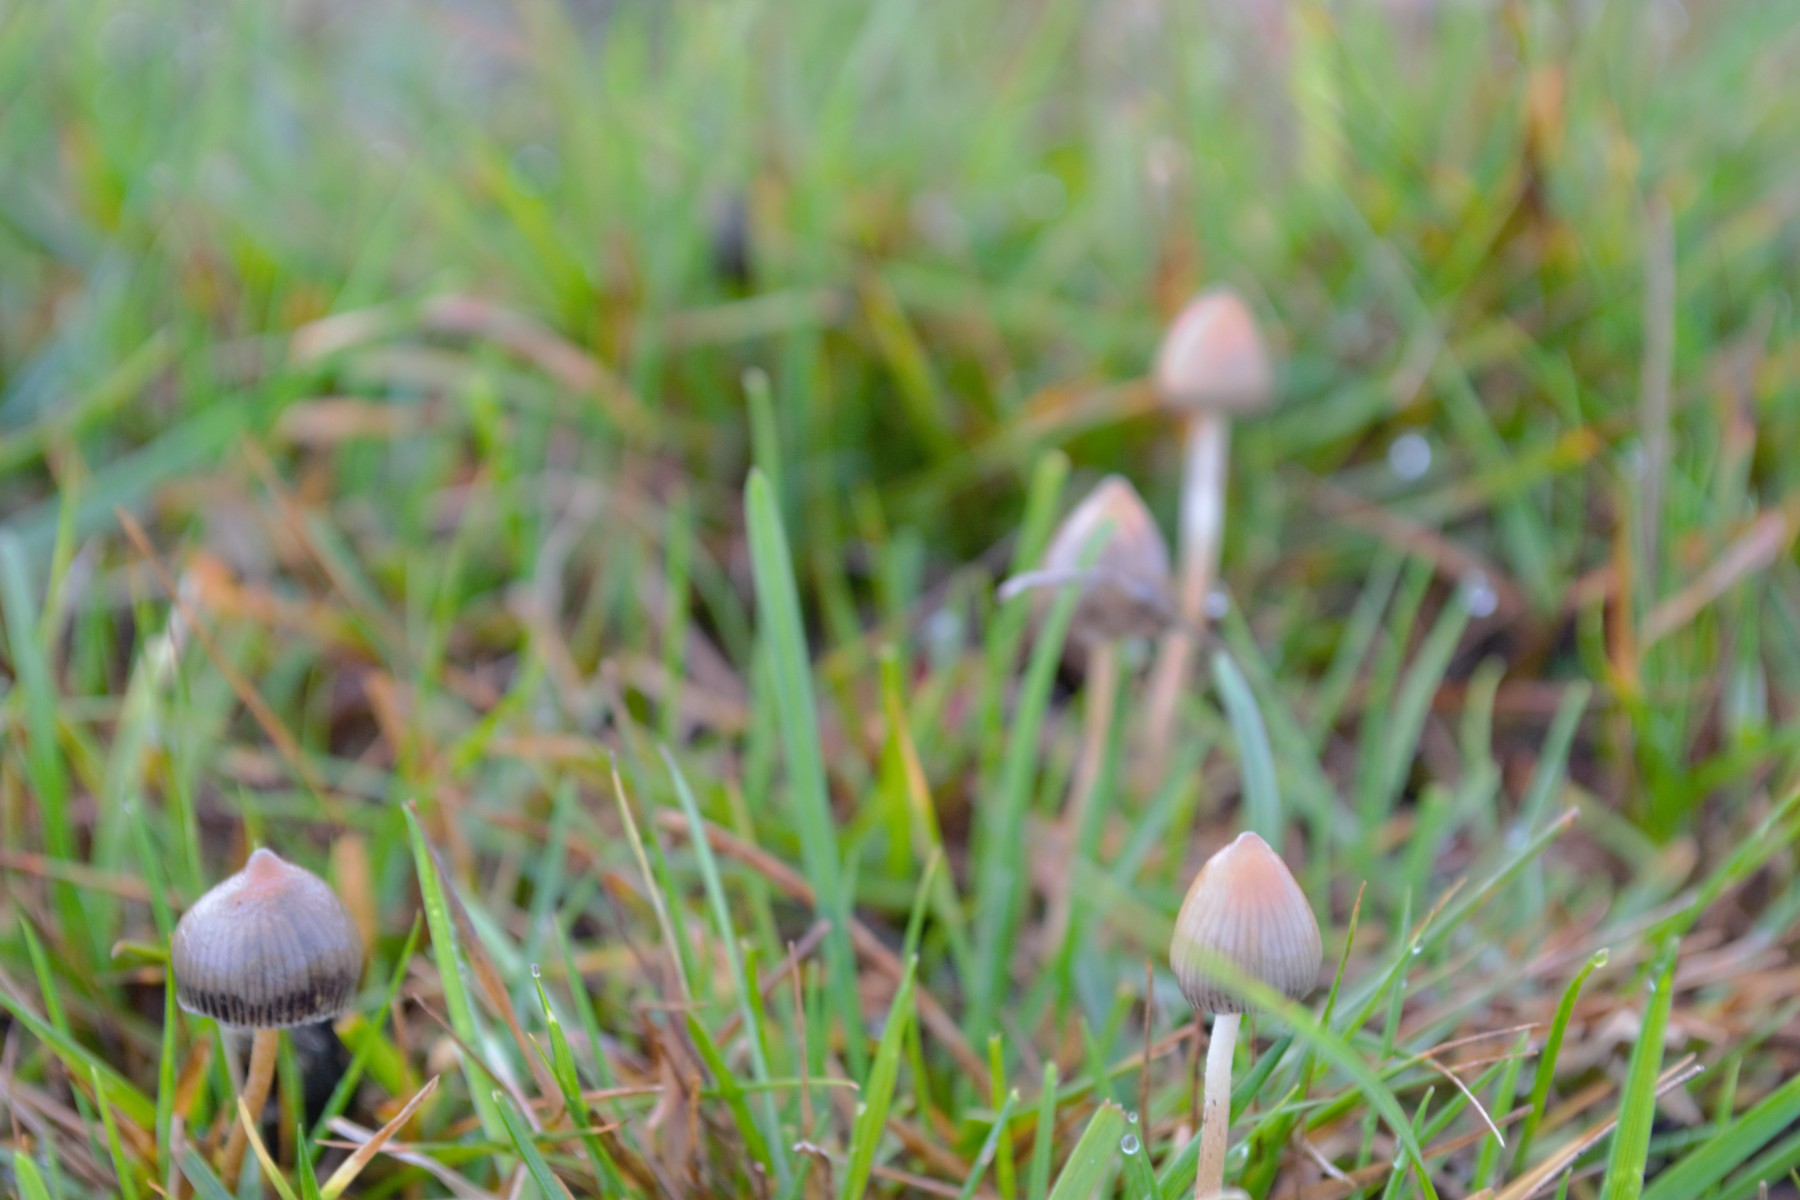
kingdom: Fungi
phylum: Basidiomycota
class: Agaricomycetes
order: Agaricales
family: Hymenogastraceae
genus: Psilocybe
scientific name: Psilocybe semilanceata
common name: spids nøgenhat
